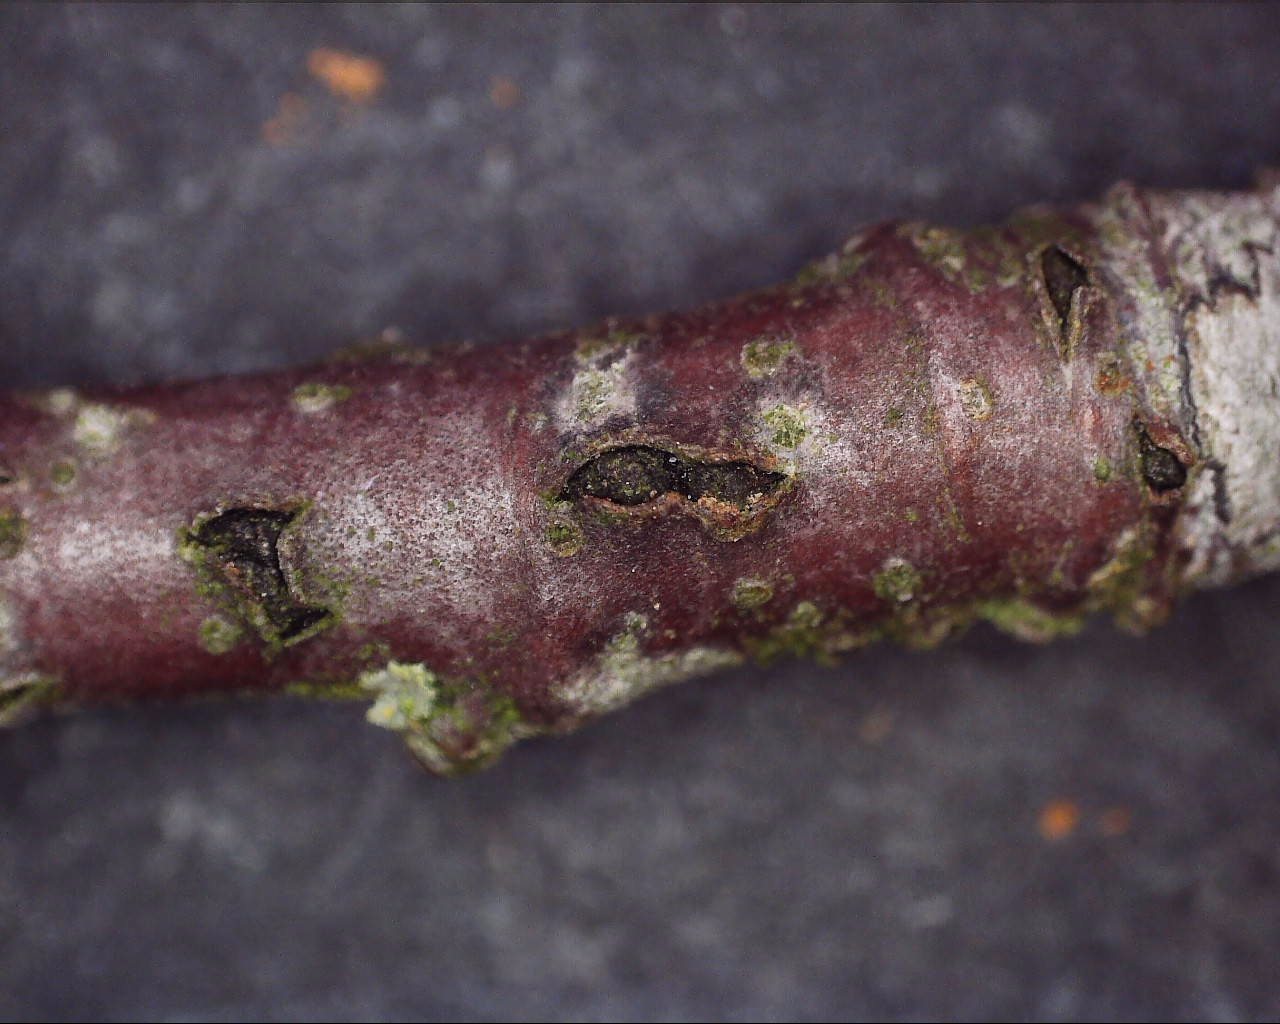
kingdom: Fungi
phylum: Ascomycota
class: Dothideomycetes
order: Pleosporales
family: Pleomassariaceae
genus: Asteromassaria
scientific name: Asteromassaria macrospora
